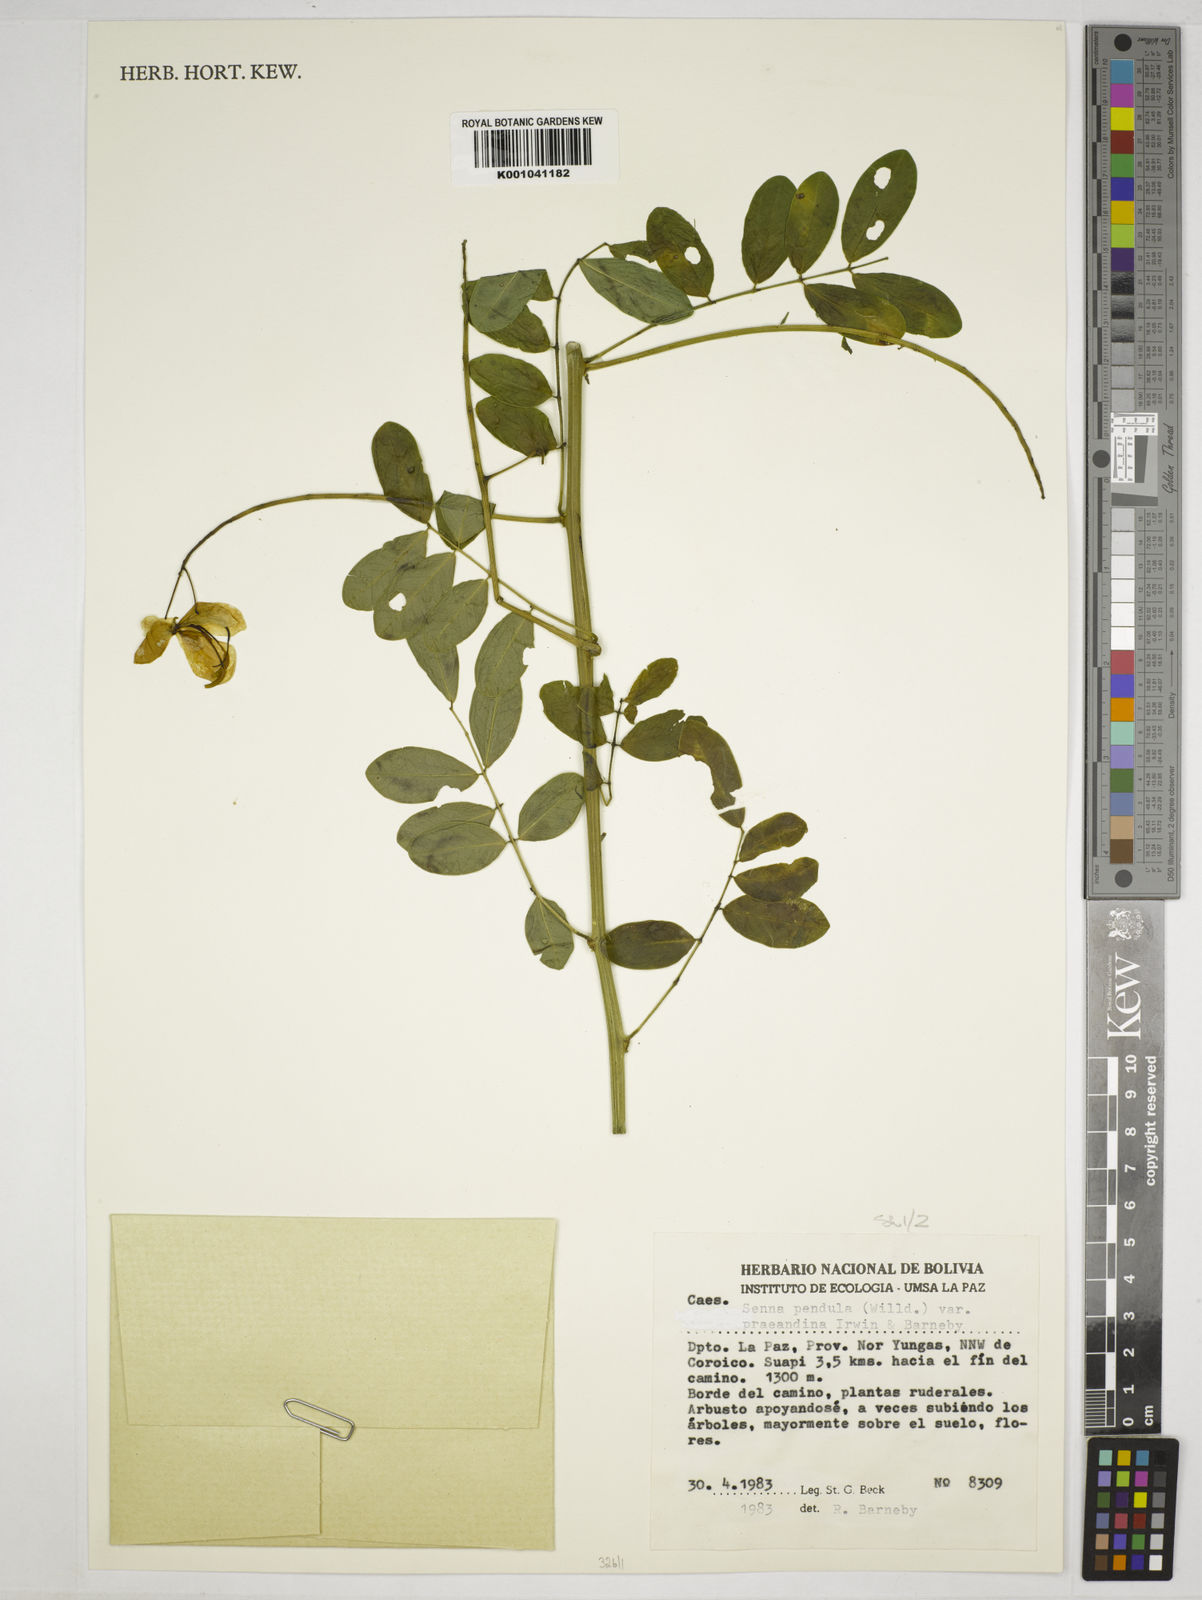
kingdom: Plantae
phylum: Tracheophyta
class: Magnoliopsida
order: Fabales
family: Fabaceae
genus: Senna
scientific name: Senna pendula
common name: Easter cassia
